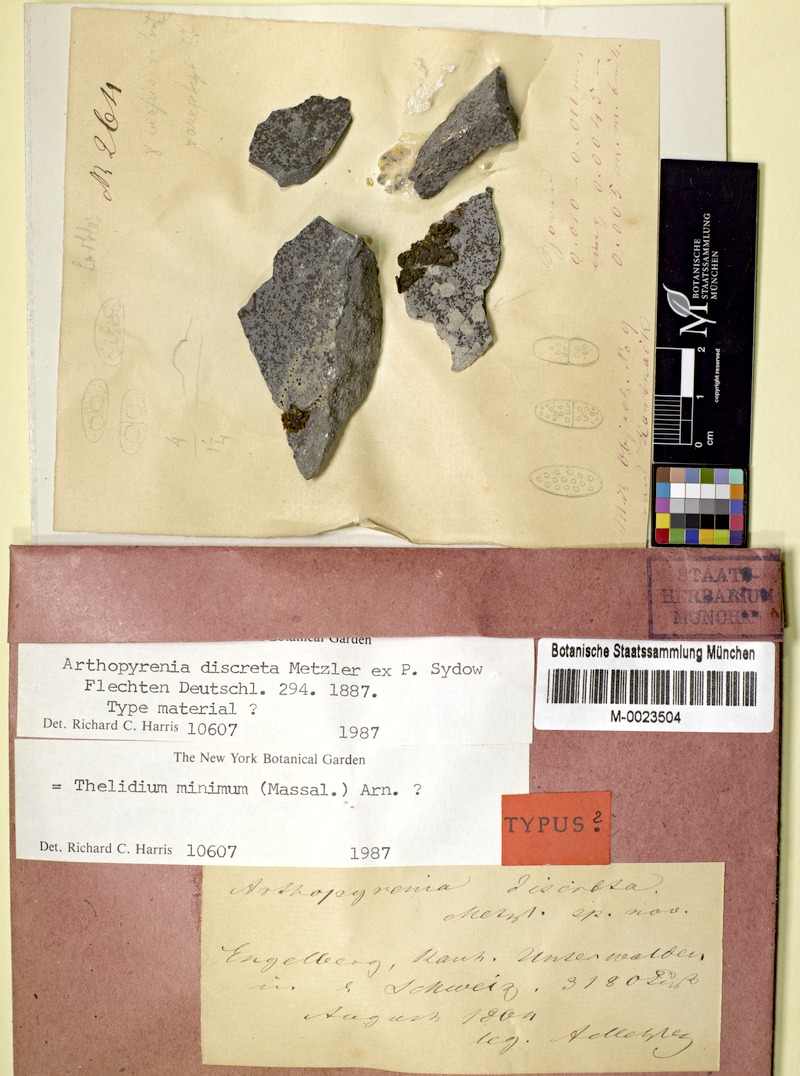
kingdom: Fungi
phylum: Ascomycota
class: Eurotiomycetes
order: Verrucariales
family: Verrucariaceae
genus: Thelidium
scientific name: Thelidium minimum
